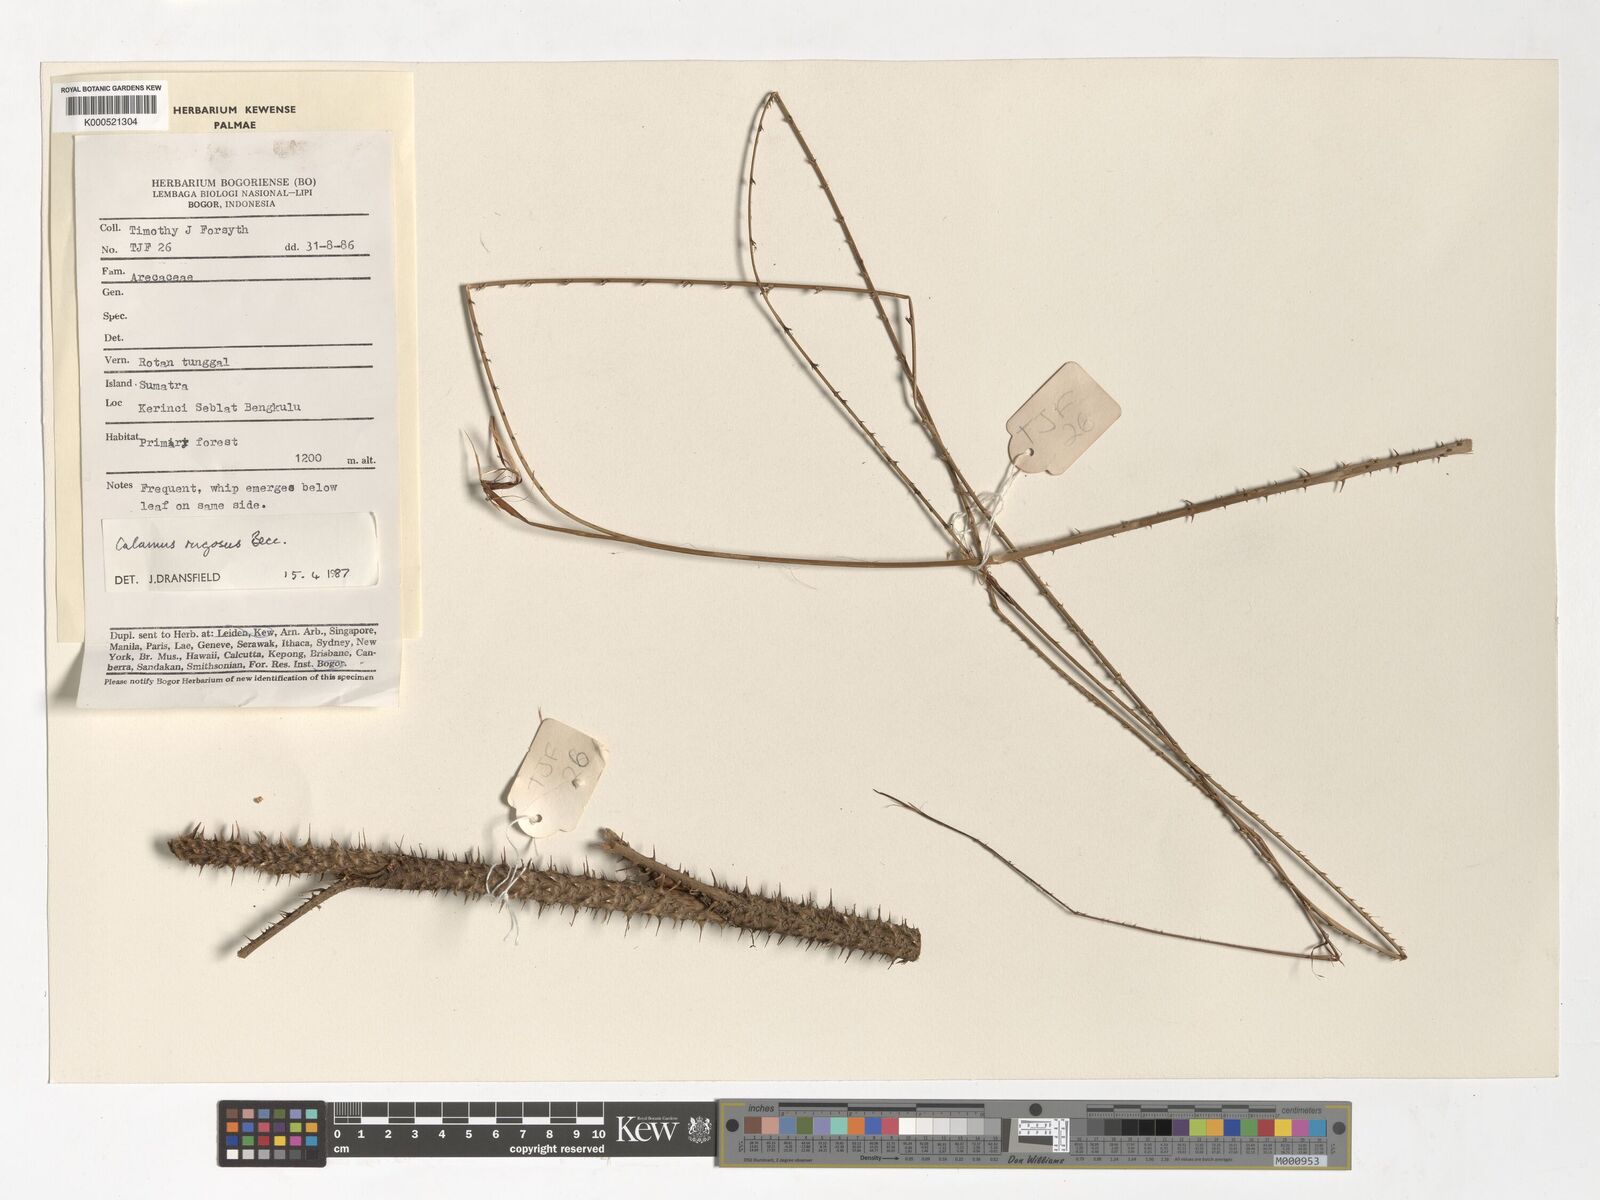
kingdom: Plantae
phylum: Tracheophyta
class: Liliopsida
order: Arecales
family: Arecaceae
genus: Calamus
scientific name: Calamus rugosus
